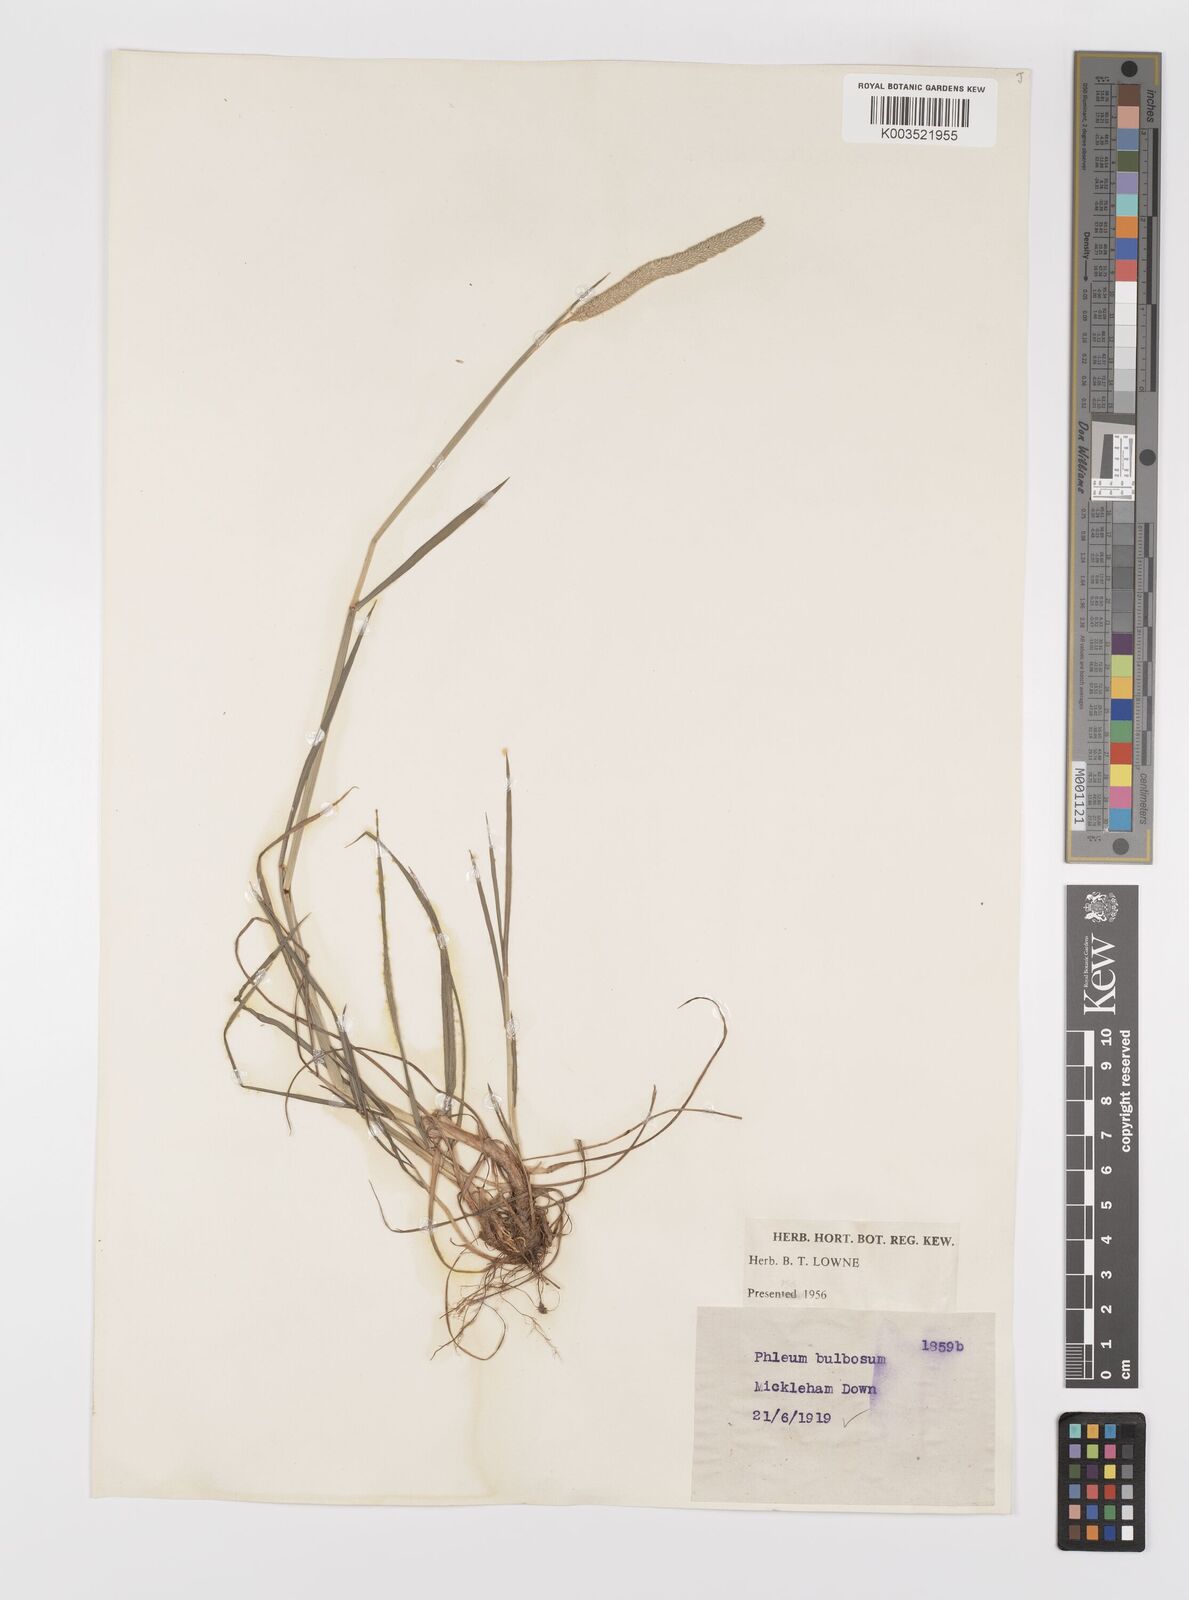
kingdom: Plantae
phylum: Tracheophyta
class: Liliopsida
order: Poales
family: Poaceae
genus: Phleum
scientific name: Phleum bertolonii
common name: Smaller cat's-tail
